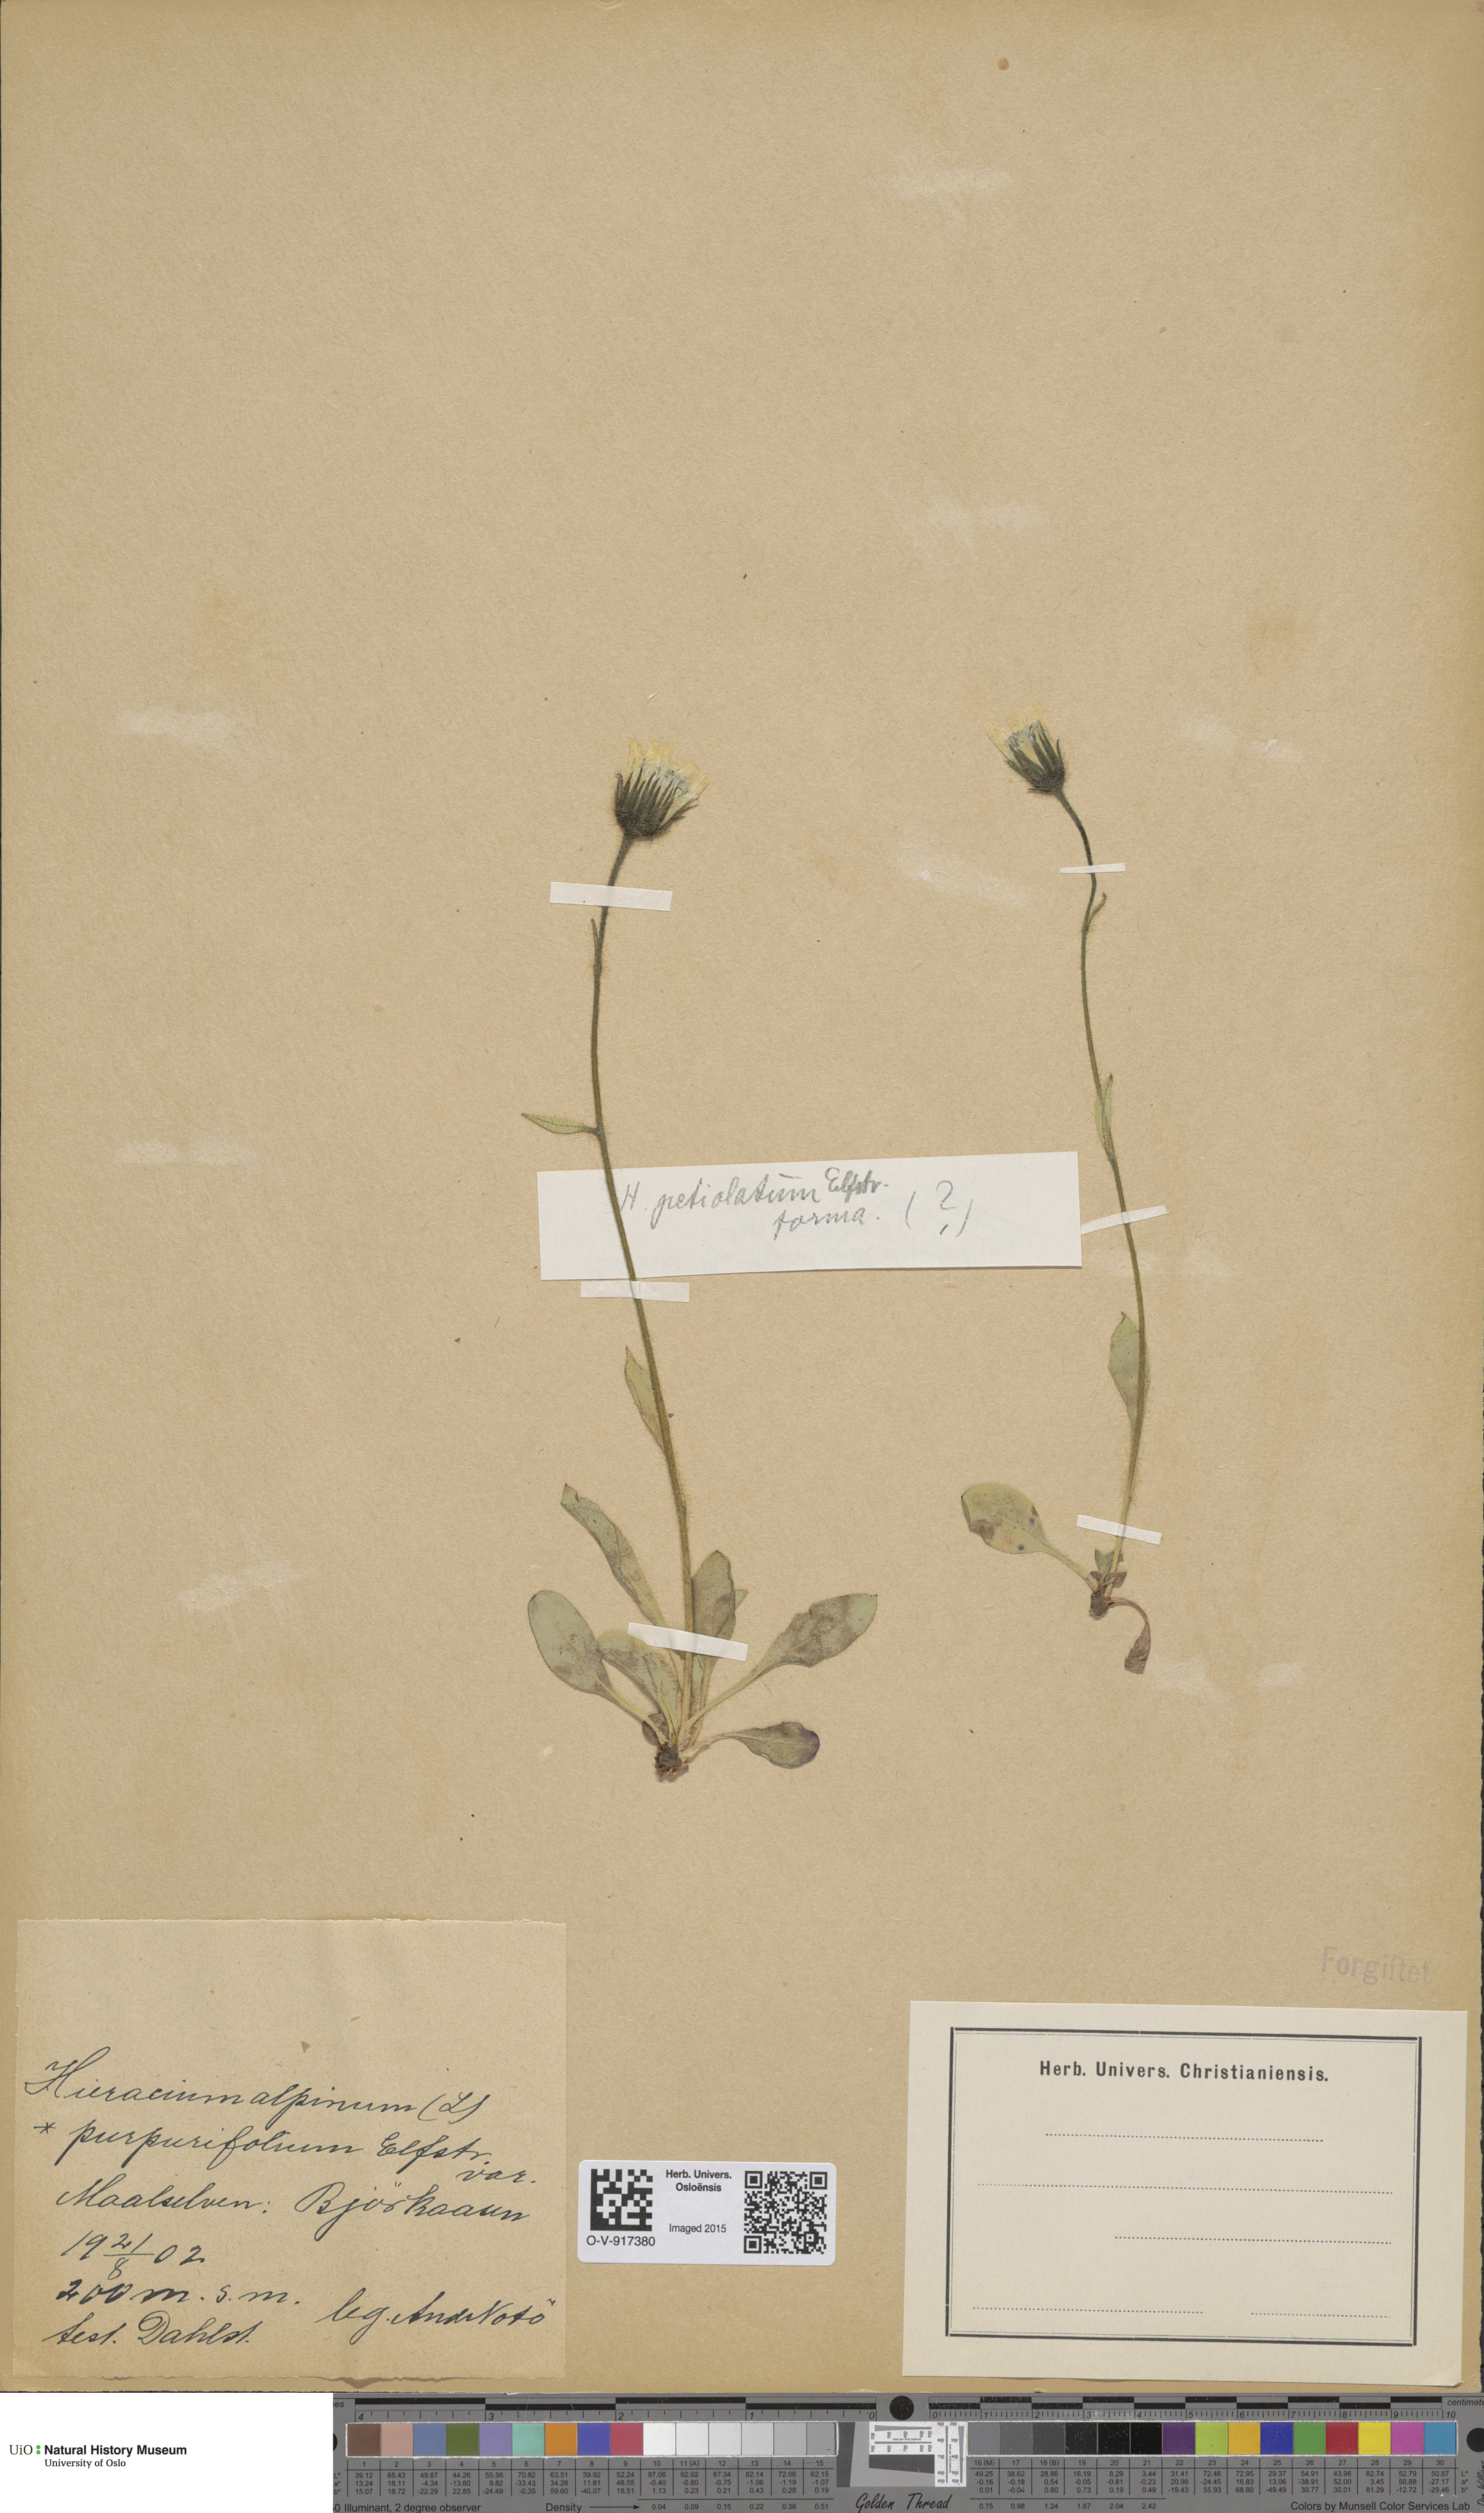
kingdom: Plantae
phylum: Tracheophyta
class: Magnoliopsida
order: Asterales
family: Asteraceae
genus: Hieracium
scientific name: Hieracium alpinum
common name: Alpine hawkweed
